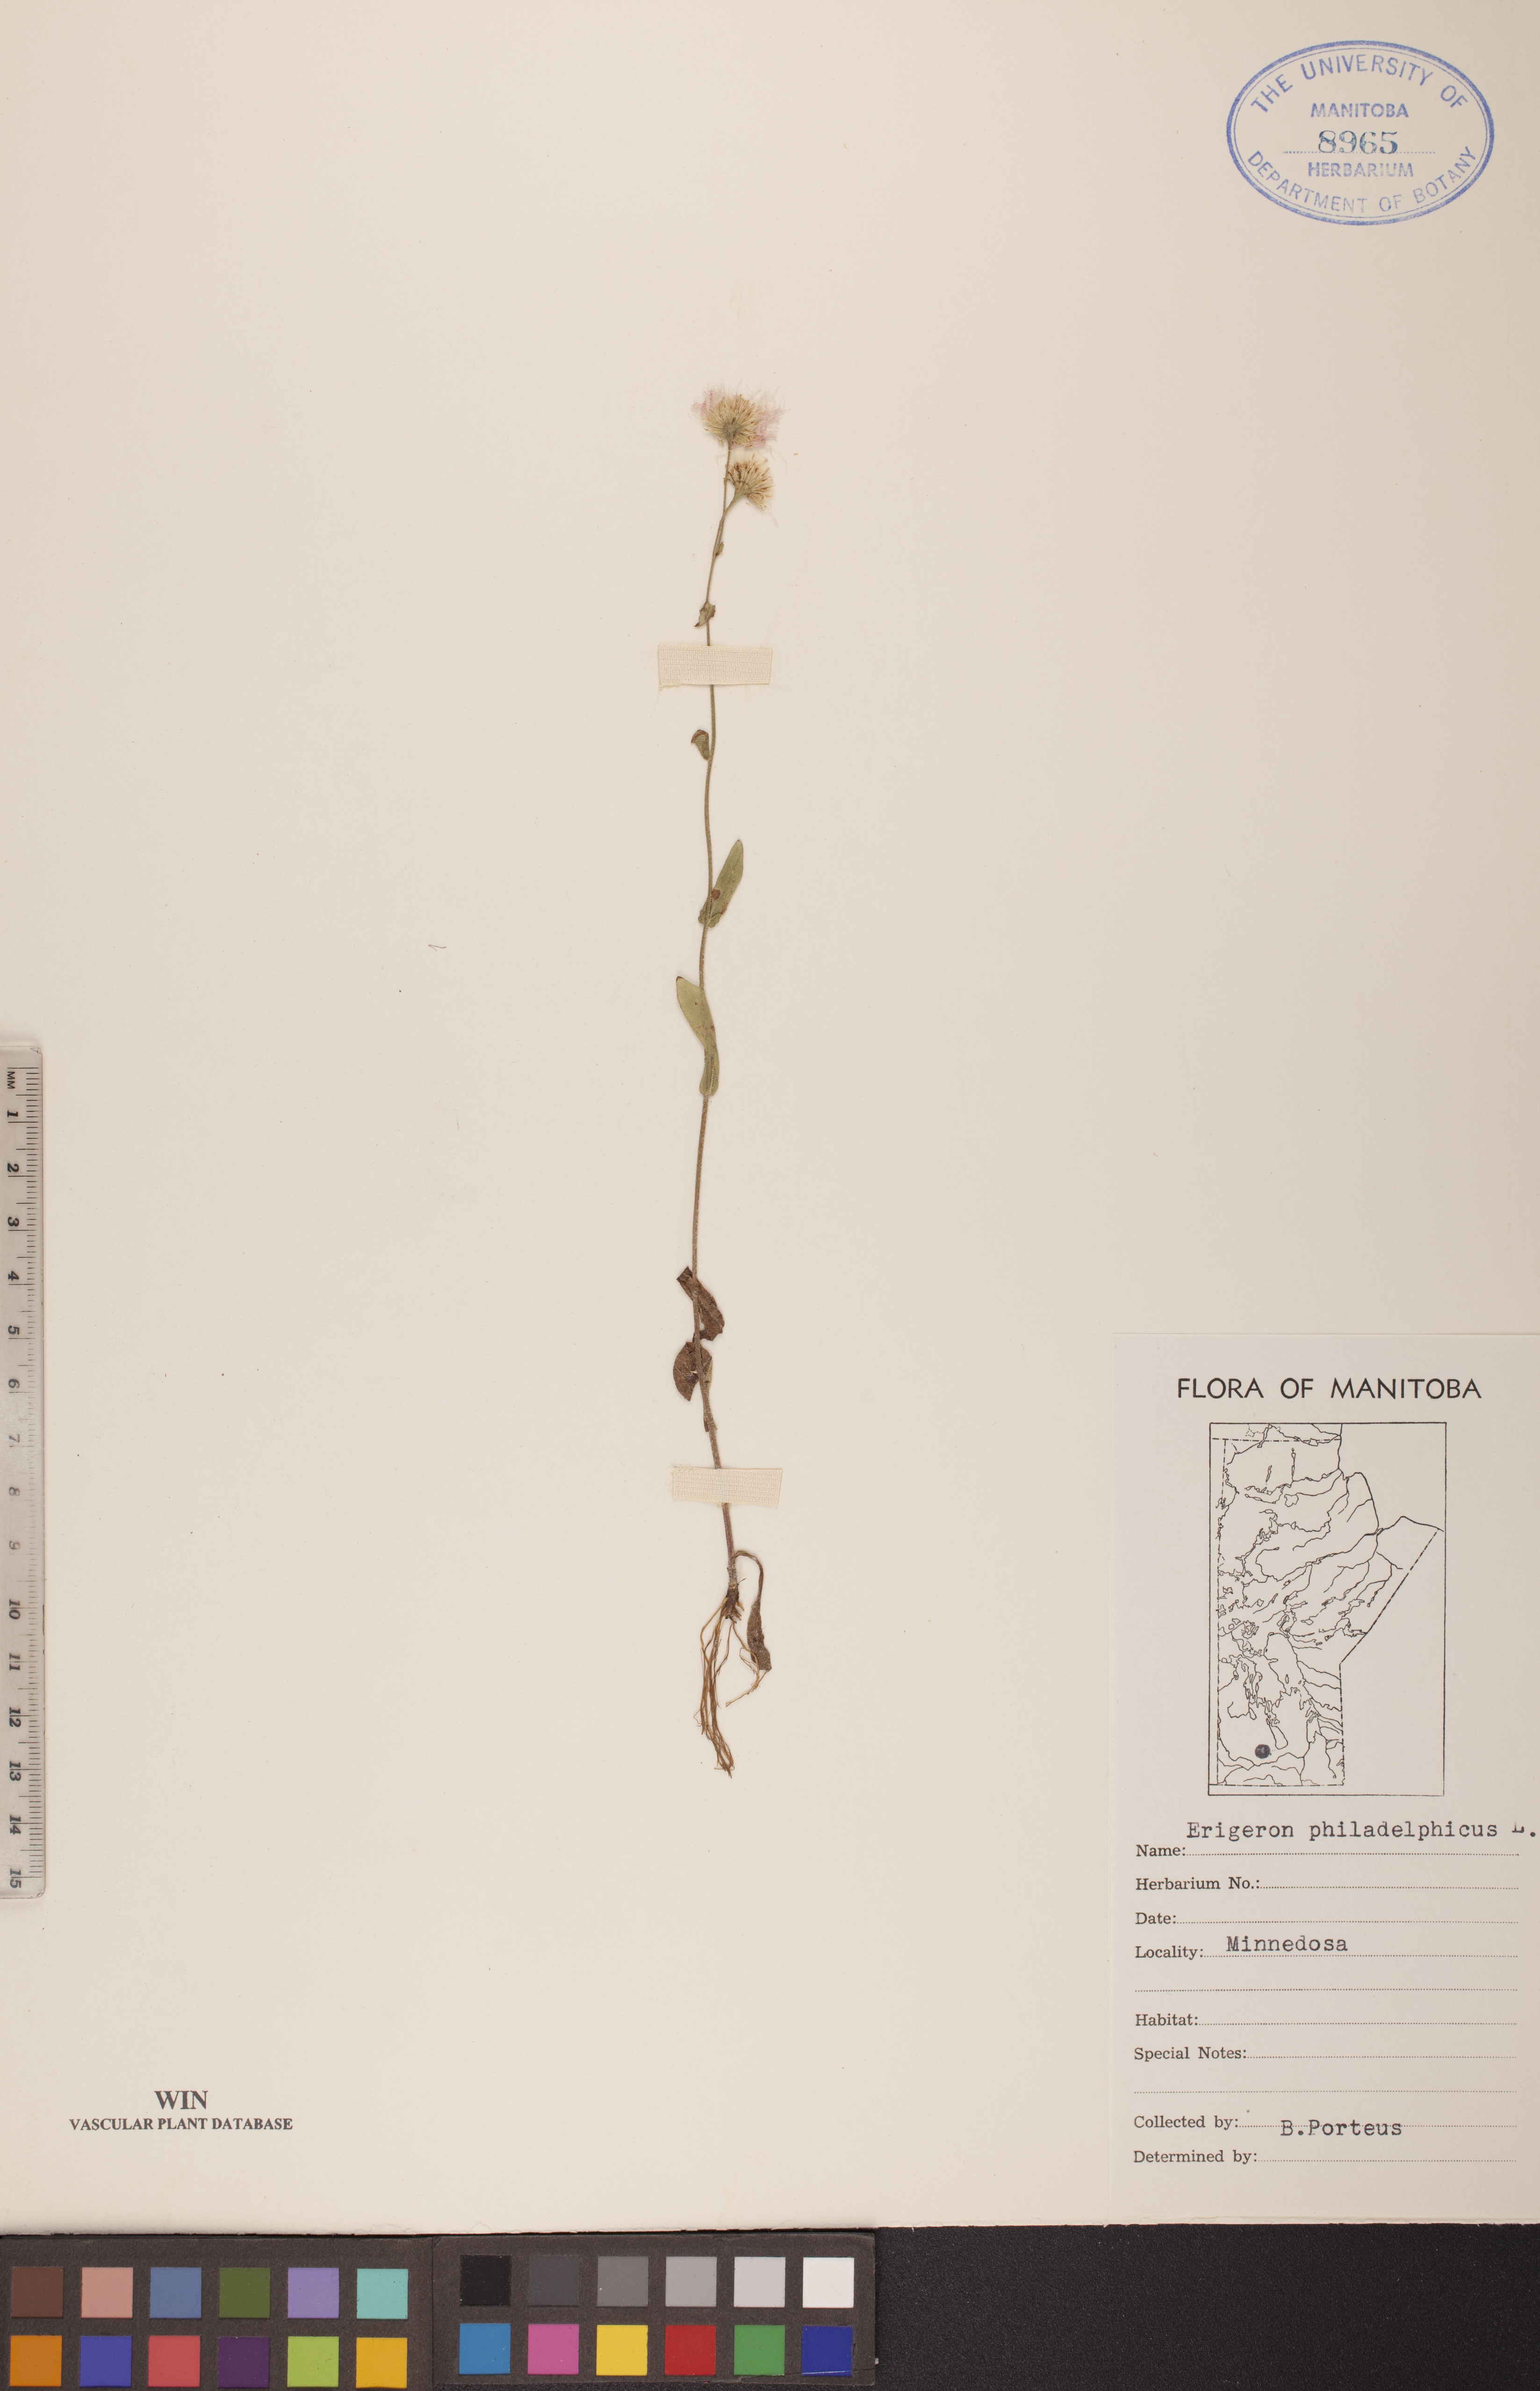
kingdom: Plantae
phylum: Tracheophyta
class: Magnoliopsida
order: Asterales
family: Asteraceae
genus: Erigeron
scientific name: Erigeron philadelphicus
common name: Robin's-plantain
